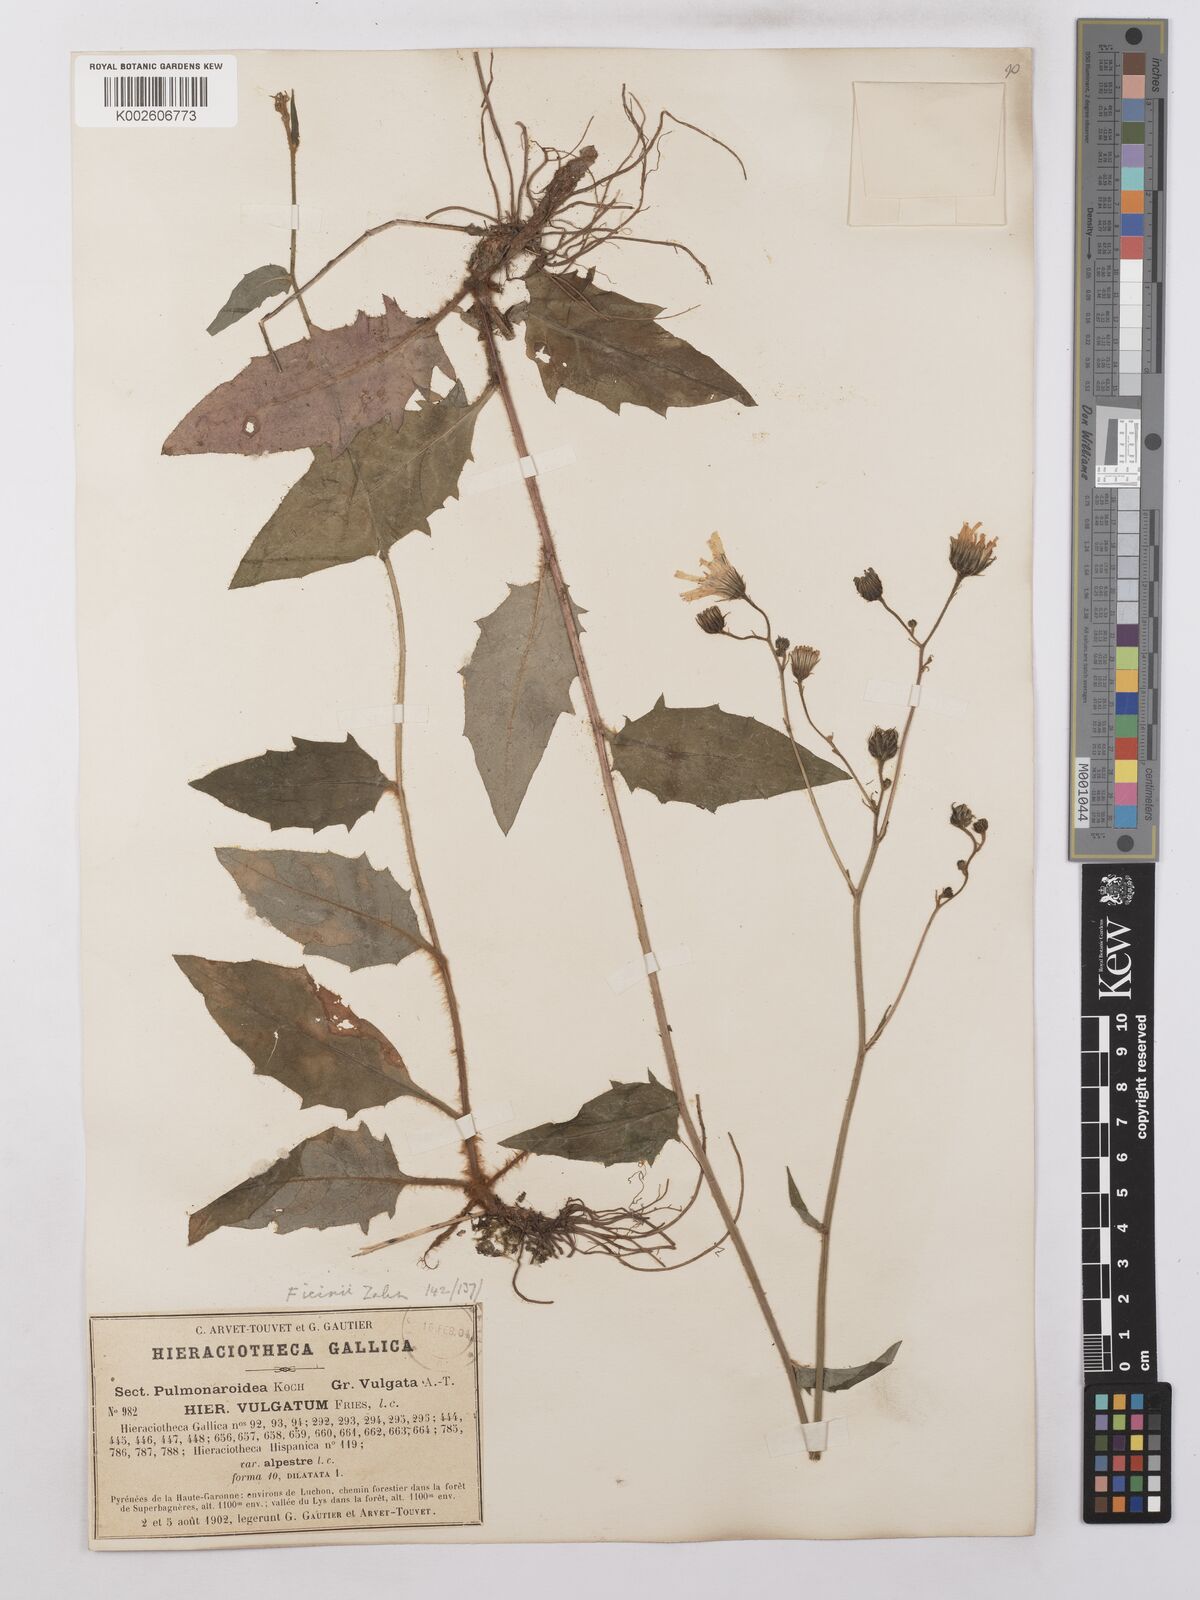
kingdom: Plantae
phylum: Tracheophyta
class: Magnoliopsida
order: Asterales
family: Asteraceae
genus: Hieracium
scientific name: Hieracium lachenalii
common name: Common hawkweed
